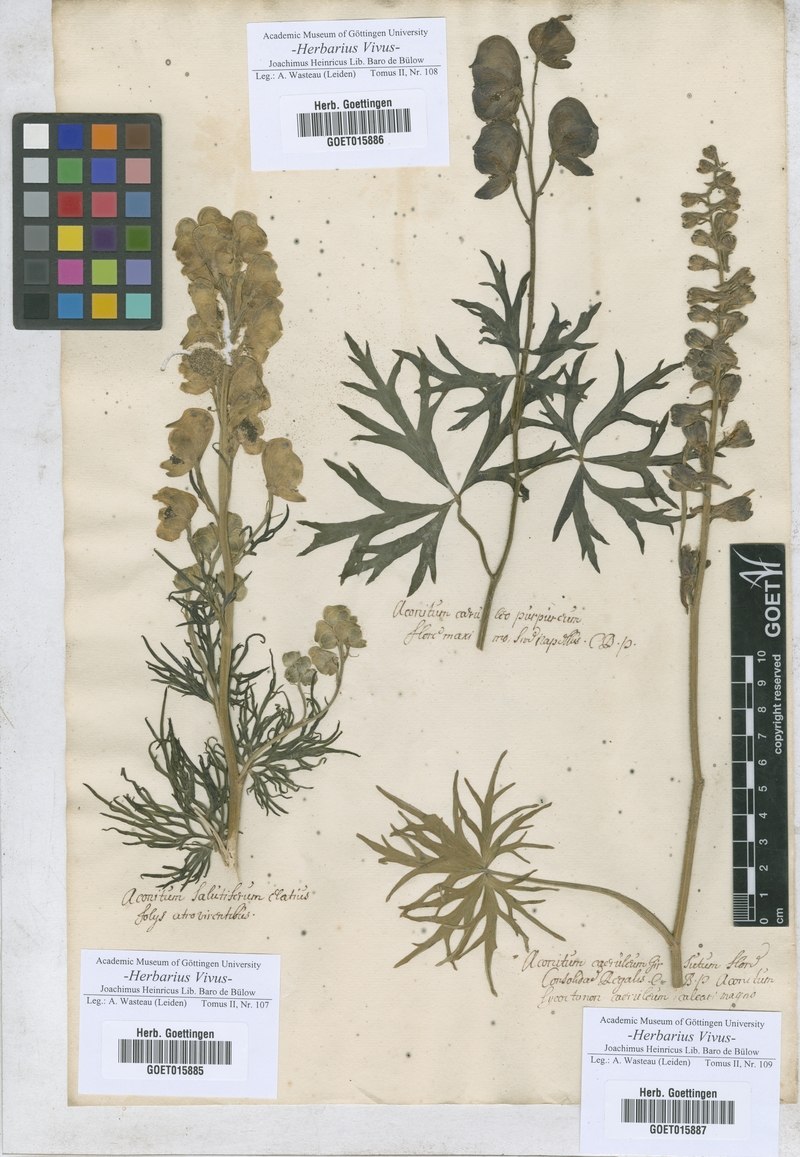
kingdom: Plantae
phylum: Tracheophyta
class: Magnoliopsida
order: Ranunculales
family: Ranunculaceae
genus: Aconitum
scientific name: Aconitum
